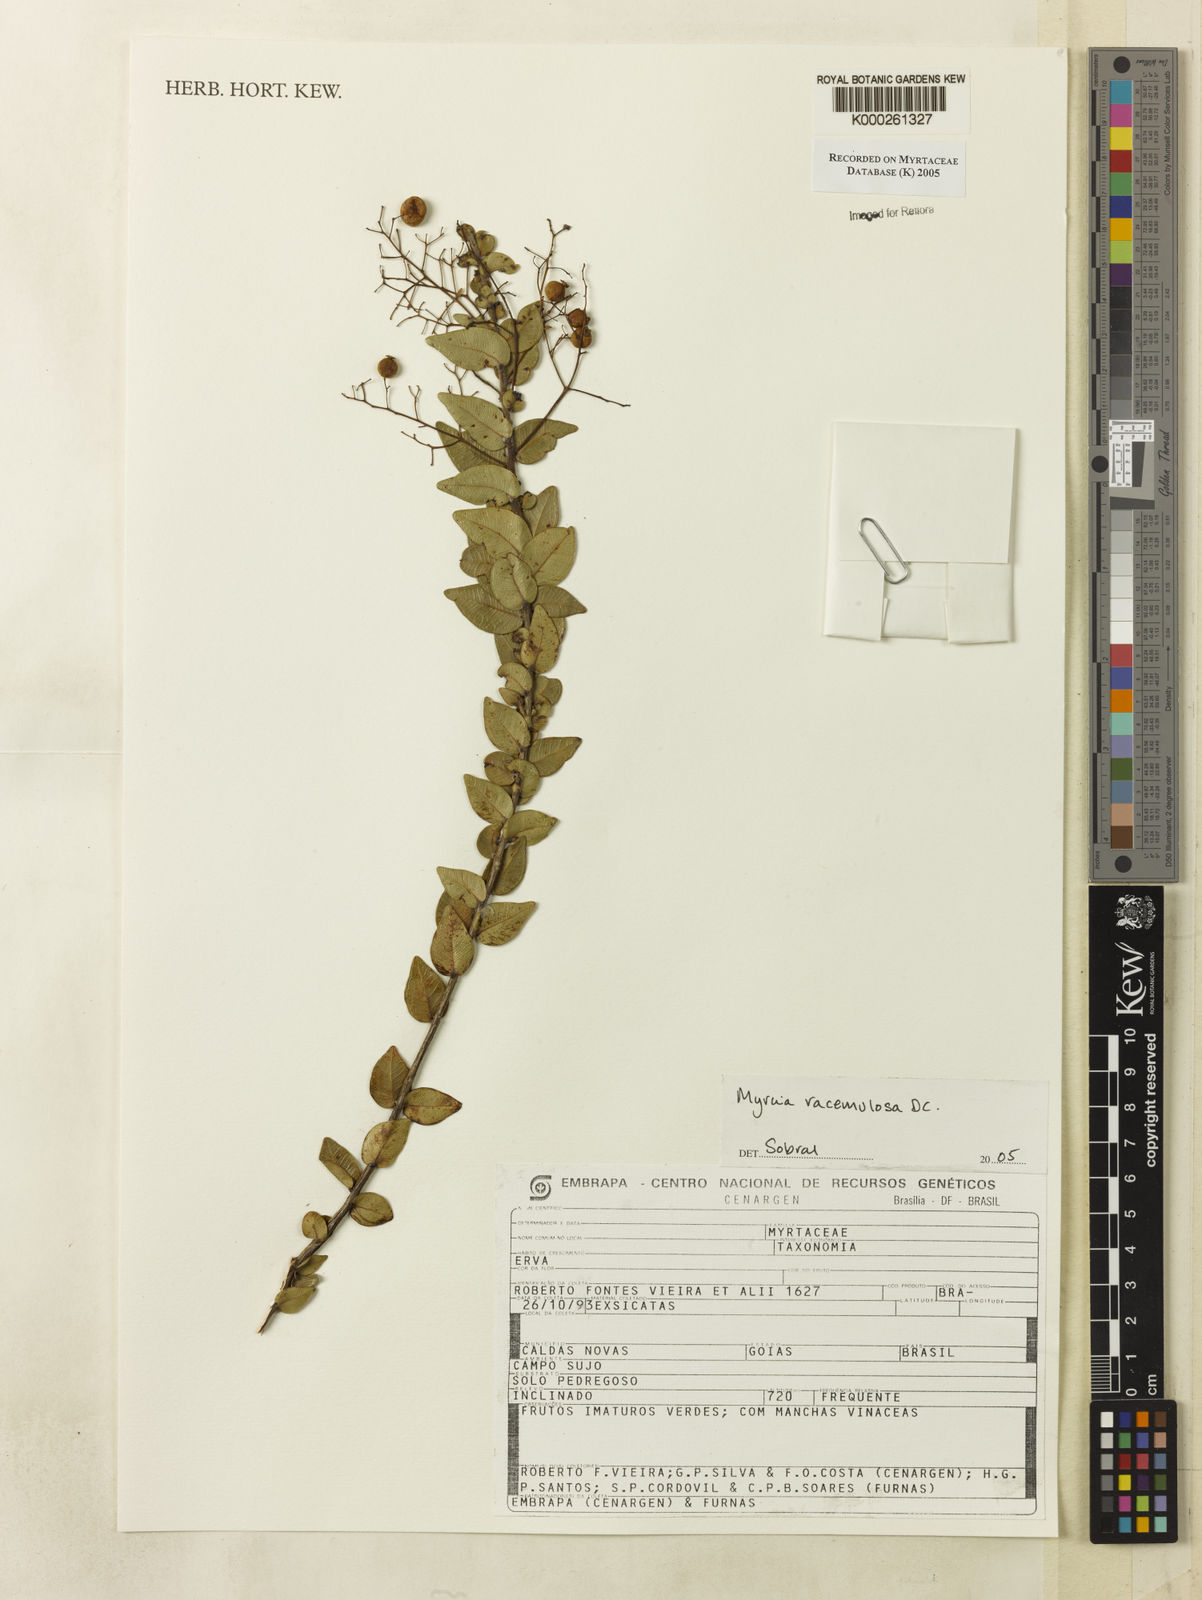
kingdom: Plantae
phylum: Tracheophyta
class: Magnoliopsida
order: Myrtales
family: Myrtaceae
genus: Myrcia
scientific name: Myrcia racemulosa
